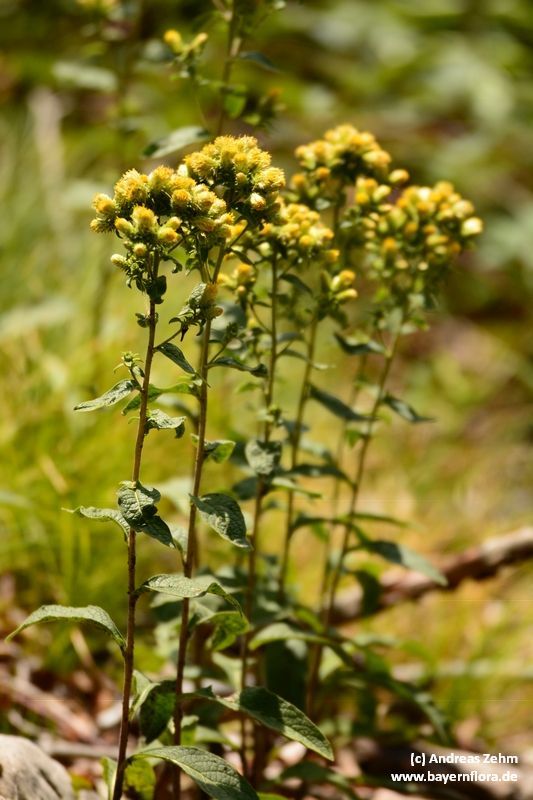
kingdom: Plantae
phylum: Tracheophyta
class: Magnoliopsida
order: Asterales
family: Asteraceae
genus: Pentanema
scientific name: Pentanema squarrosum
